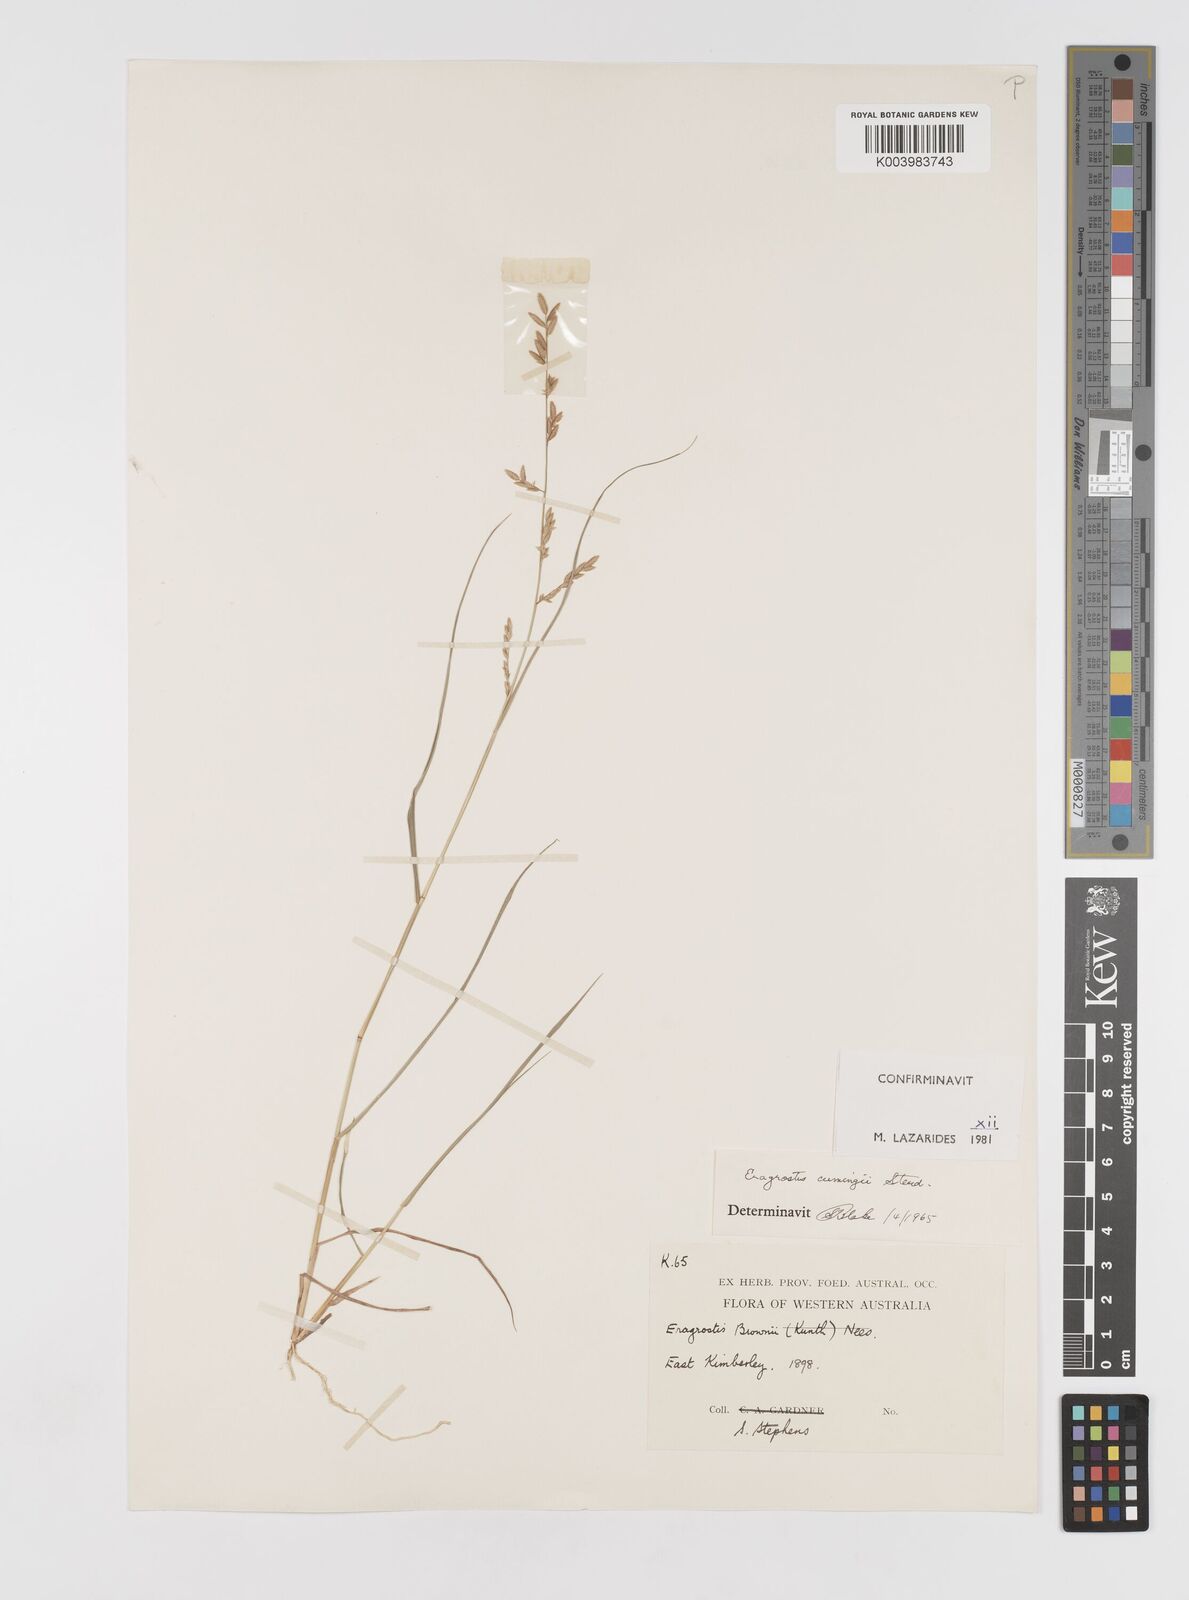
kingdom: Plantae
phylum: Tracheophyta
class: Liliopsida
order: Poales
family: Poaceae
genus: Eragrostis
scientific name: Eragrostis cumingii
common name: Cuming's lovegrass
